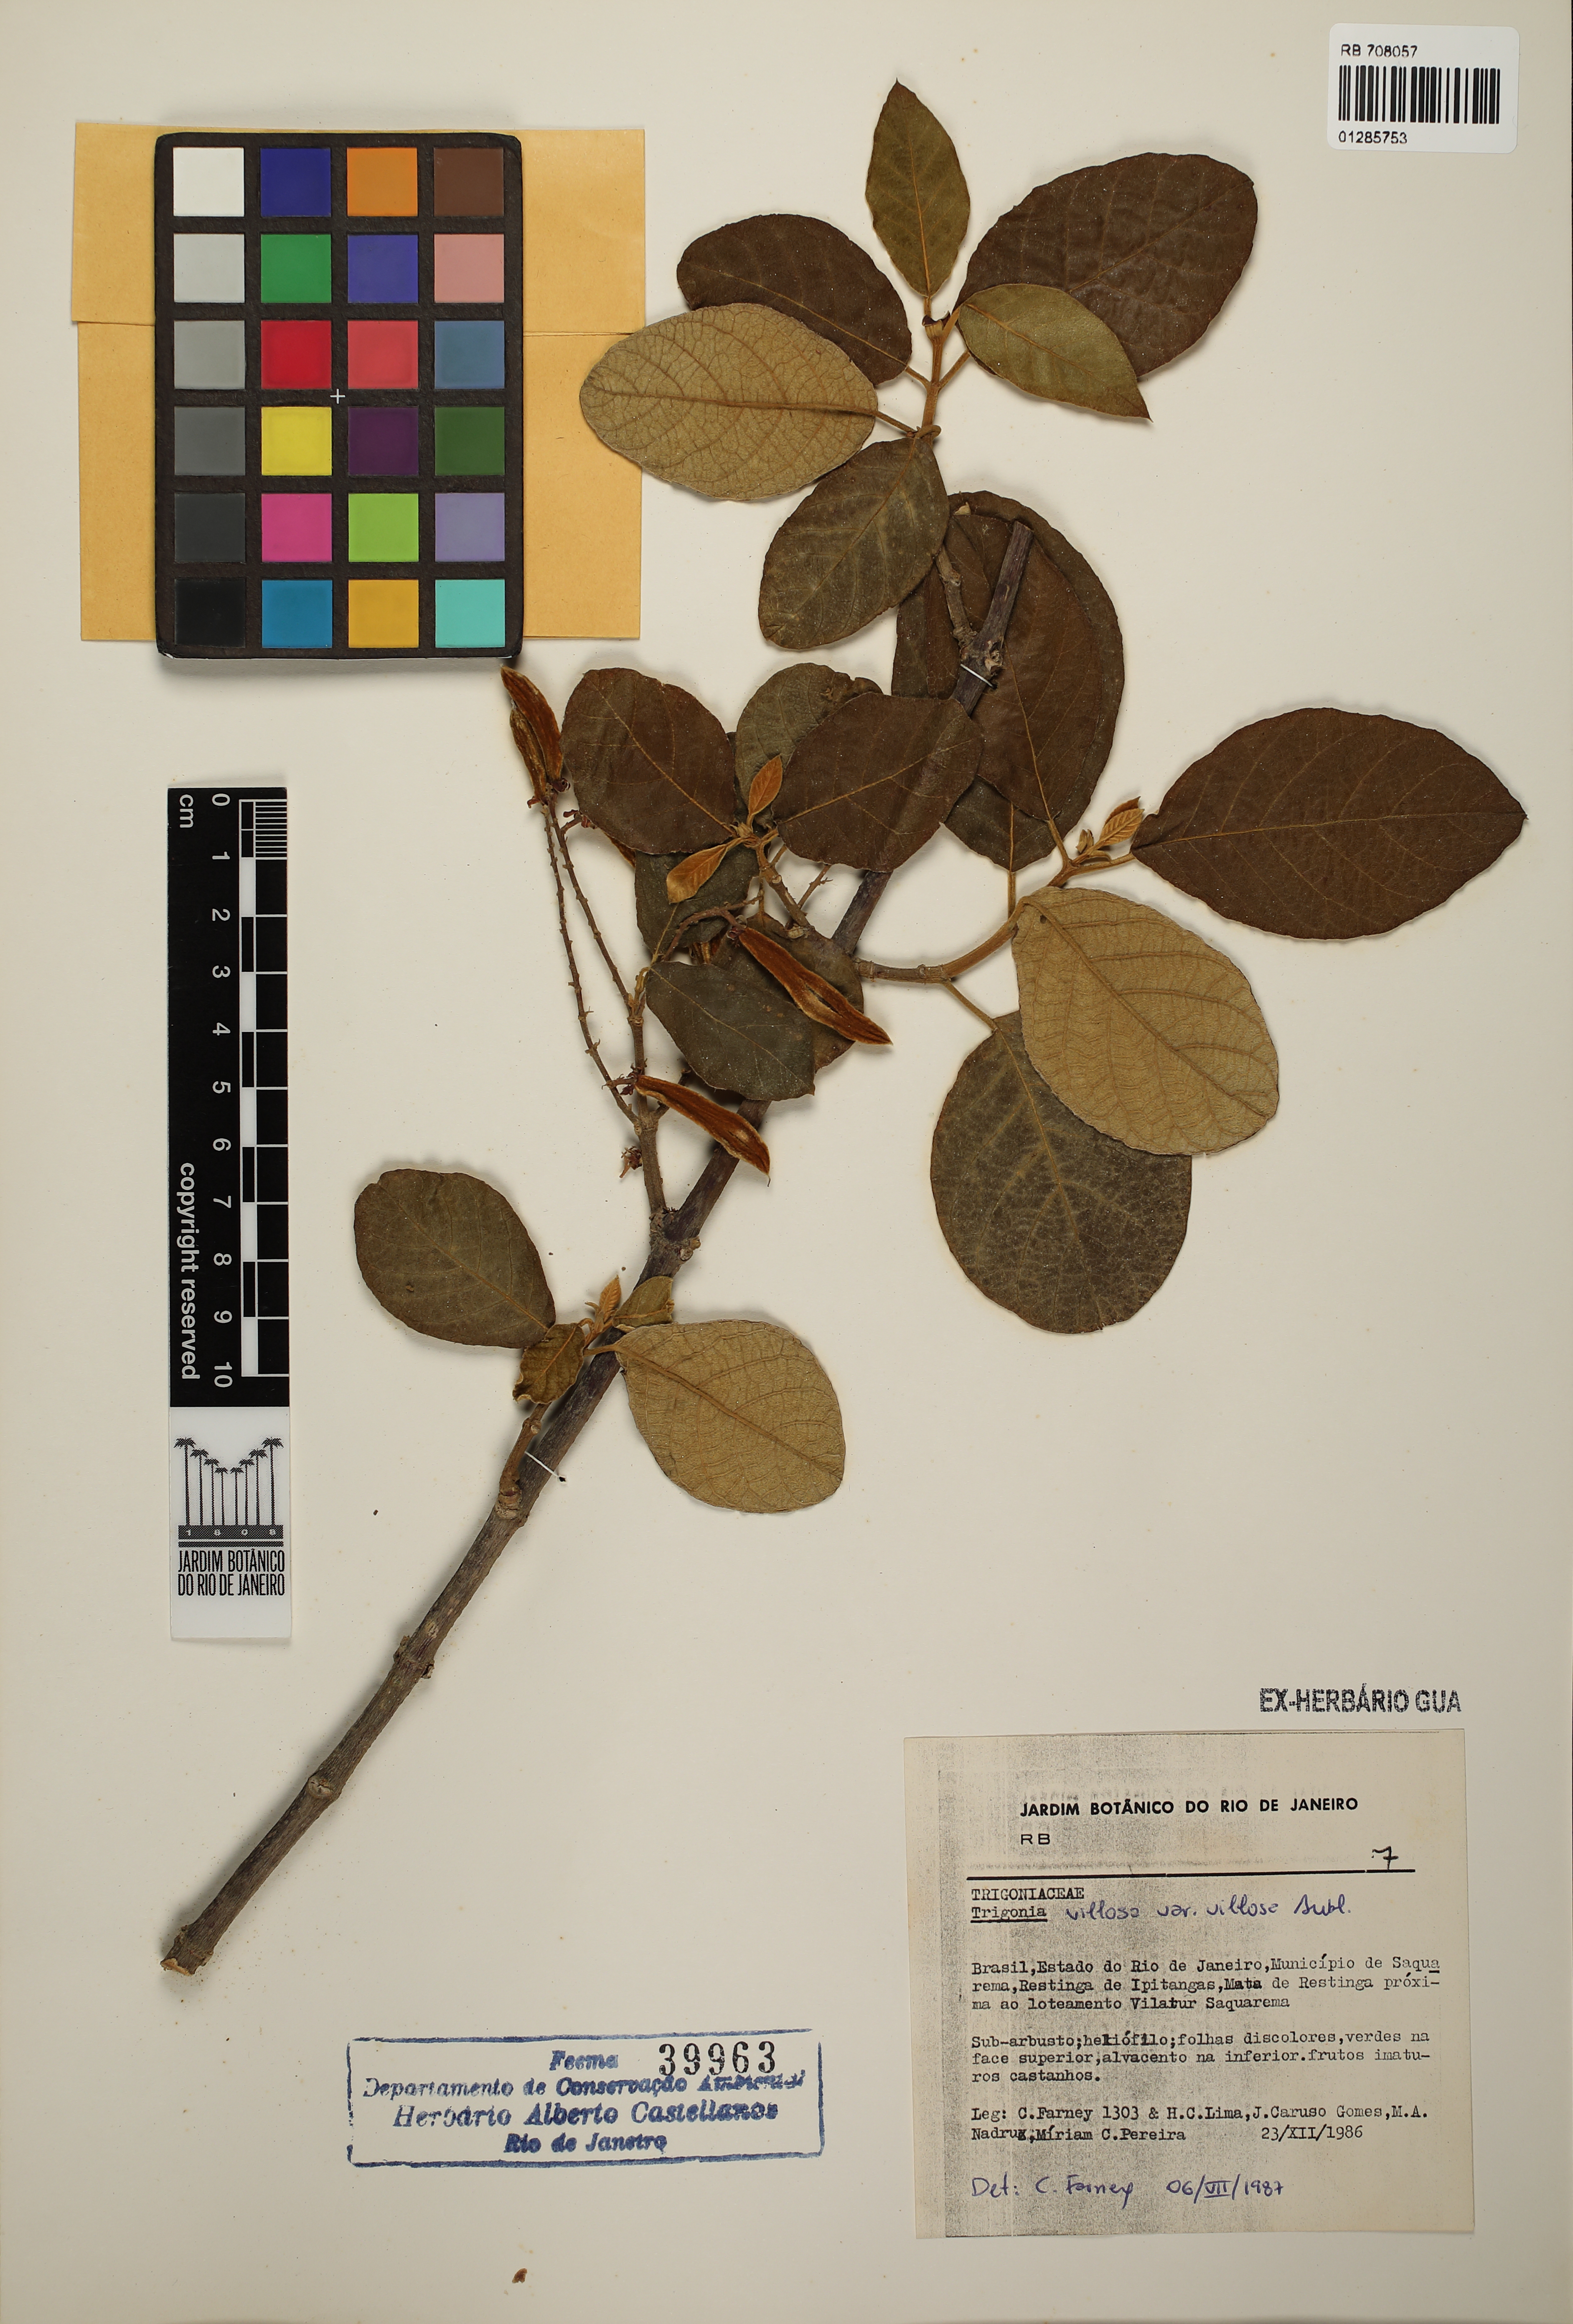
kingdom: Plantae
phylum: Tracheophyta
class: Magnoliopsida
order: Malpighiales
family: Trigoniaceae
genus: Trigonia
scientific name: Trigonia villosa
